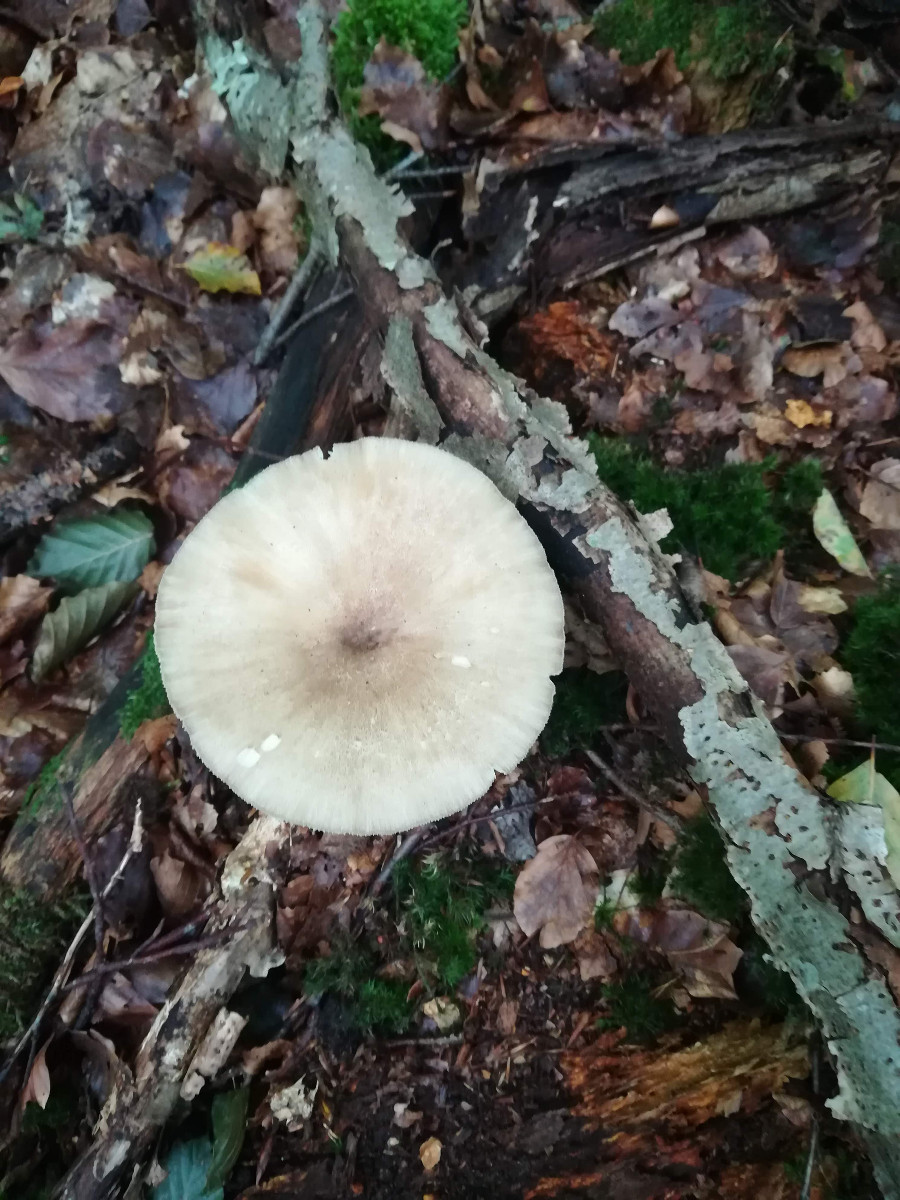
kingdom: Fungi
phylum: Basidiomycota
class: Agaricomycetes
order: Agaricales
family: Tricholomataceae
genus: Megacollybia
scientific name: Megacollybia platyphylla
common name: bredbladet væbnerhat
